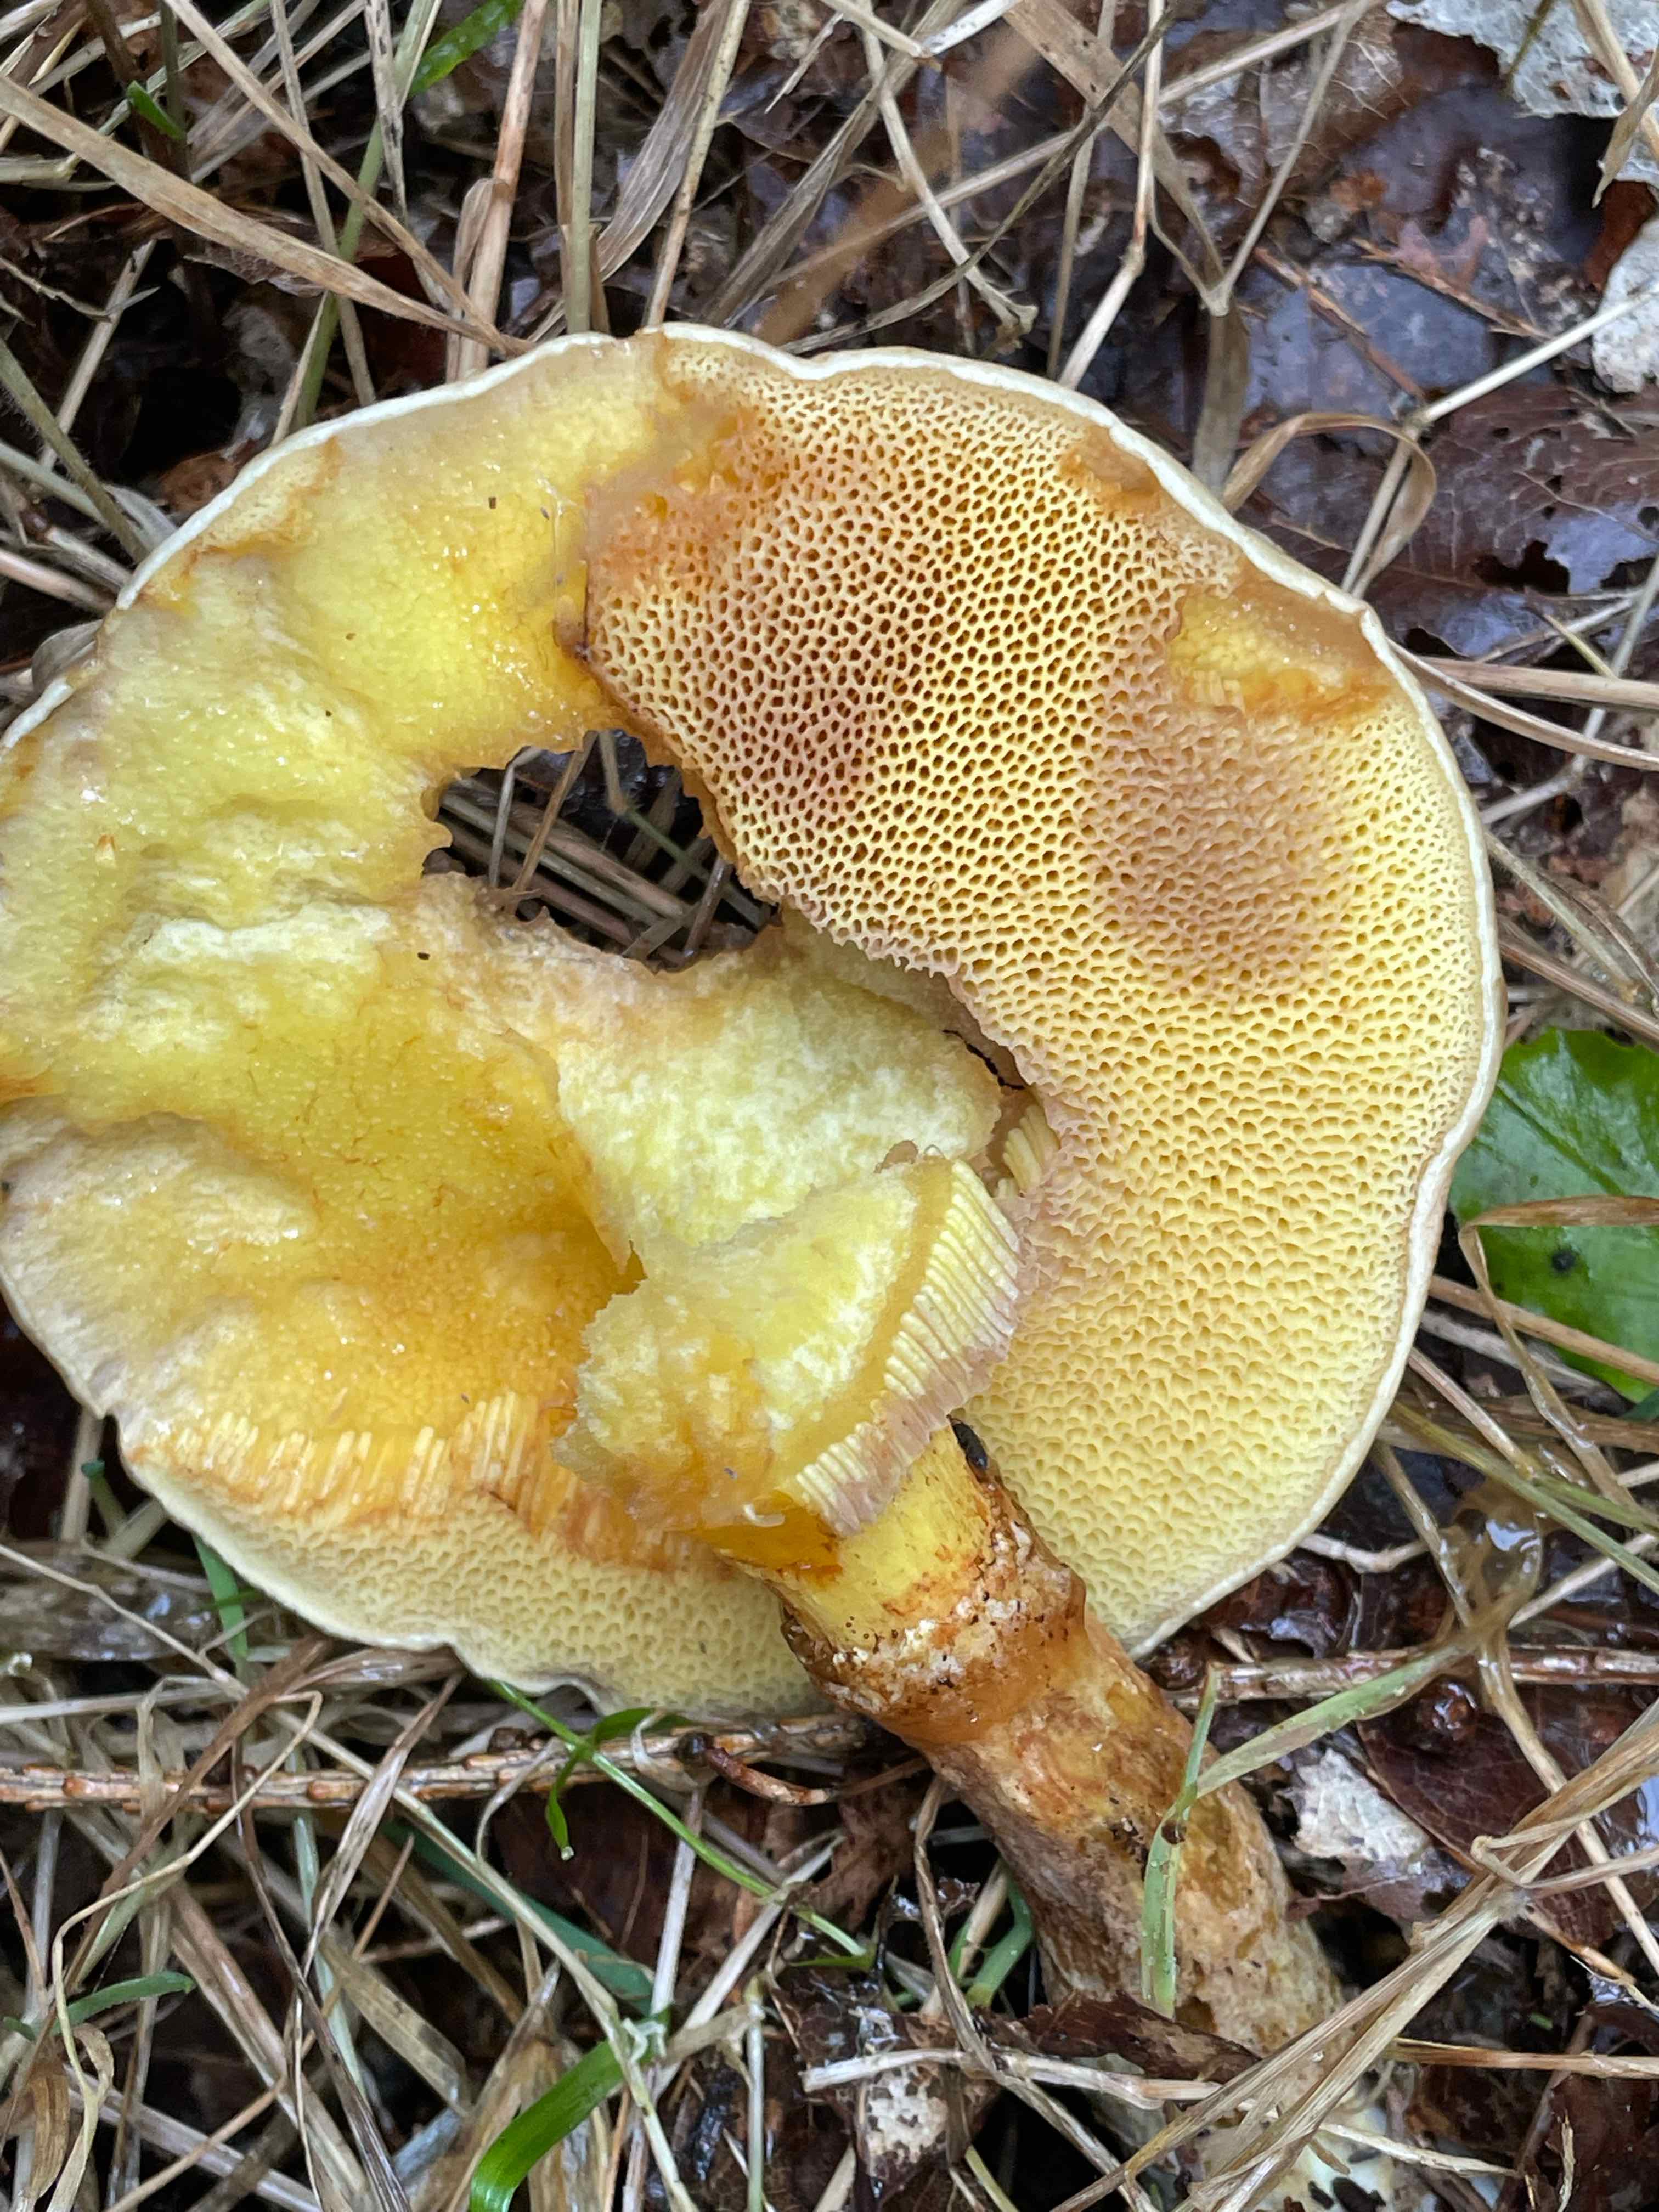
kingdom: Fungi
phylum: Basidiomycota
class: Agaricomycetes
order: Boletales
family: Suillaceae
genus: Suillus
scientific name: Suillus grevillei
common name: lærke-slimrørhat
